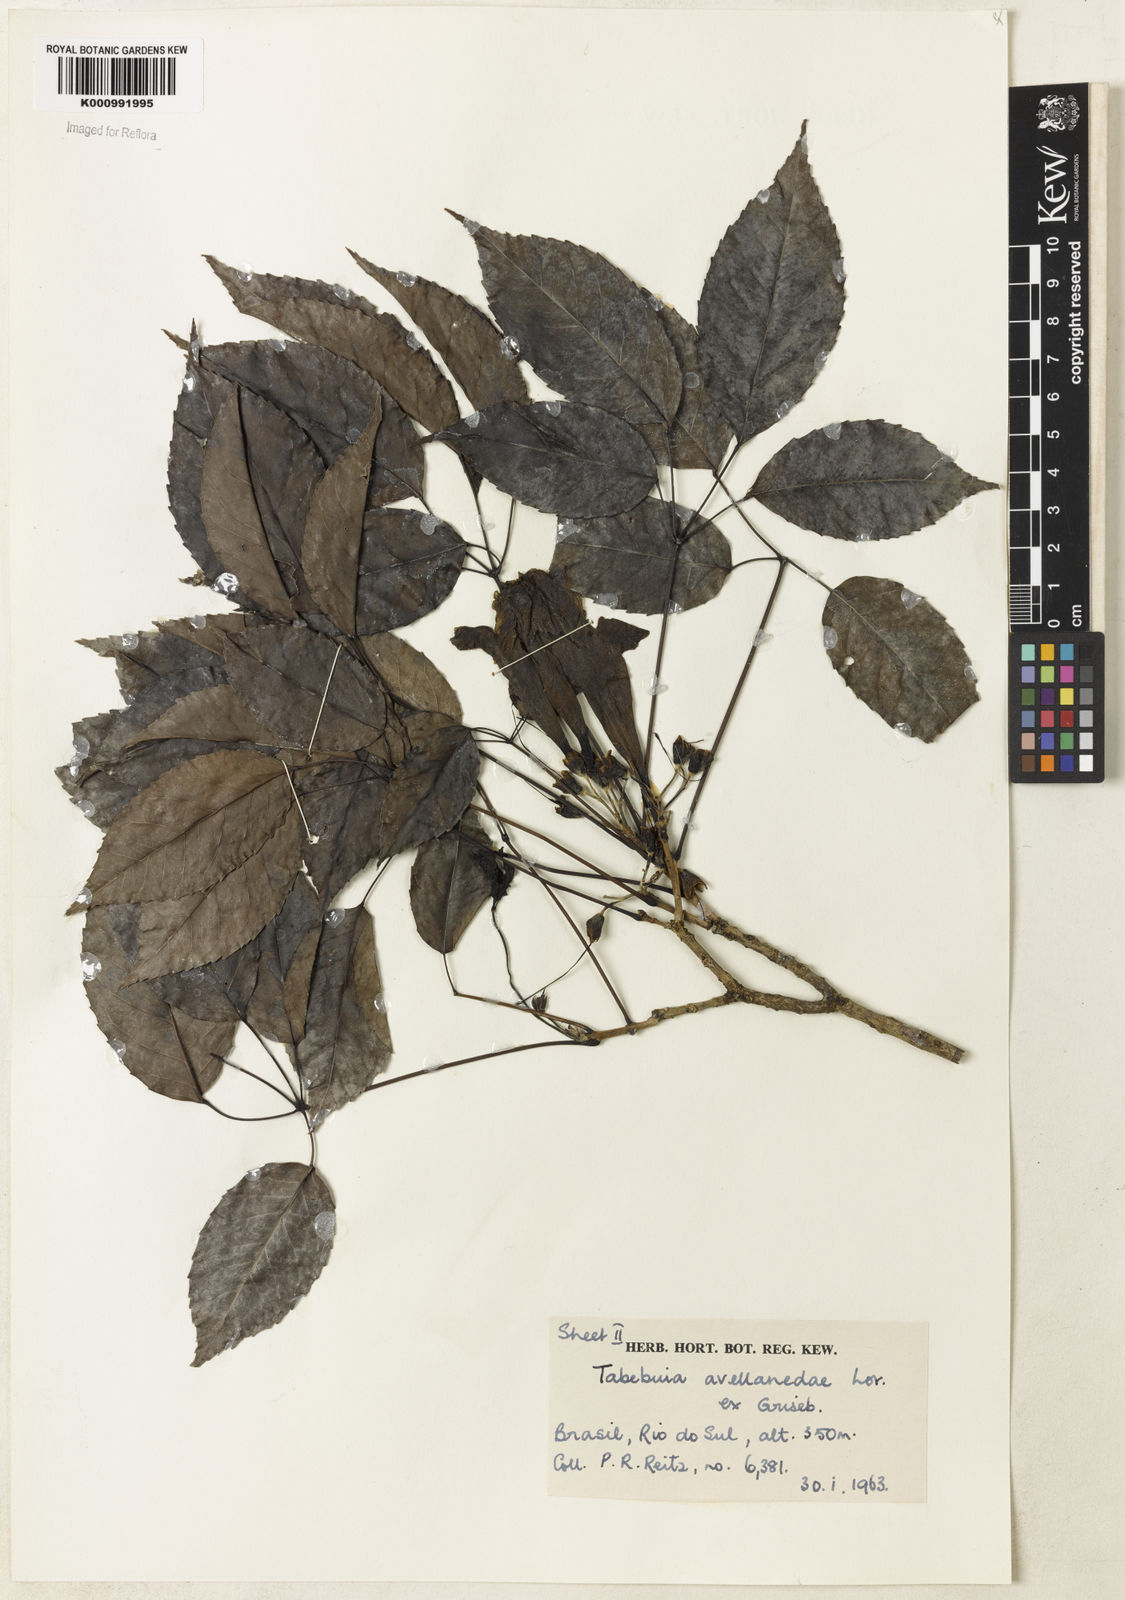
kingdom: Plantae
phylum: Tracheophyta
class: Magnoliopsida
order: Lamiales
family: Bignoniaceae
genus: Handroanthus
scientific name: Handroanthus heptaphyllus
